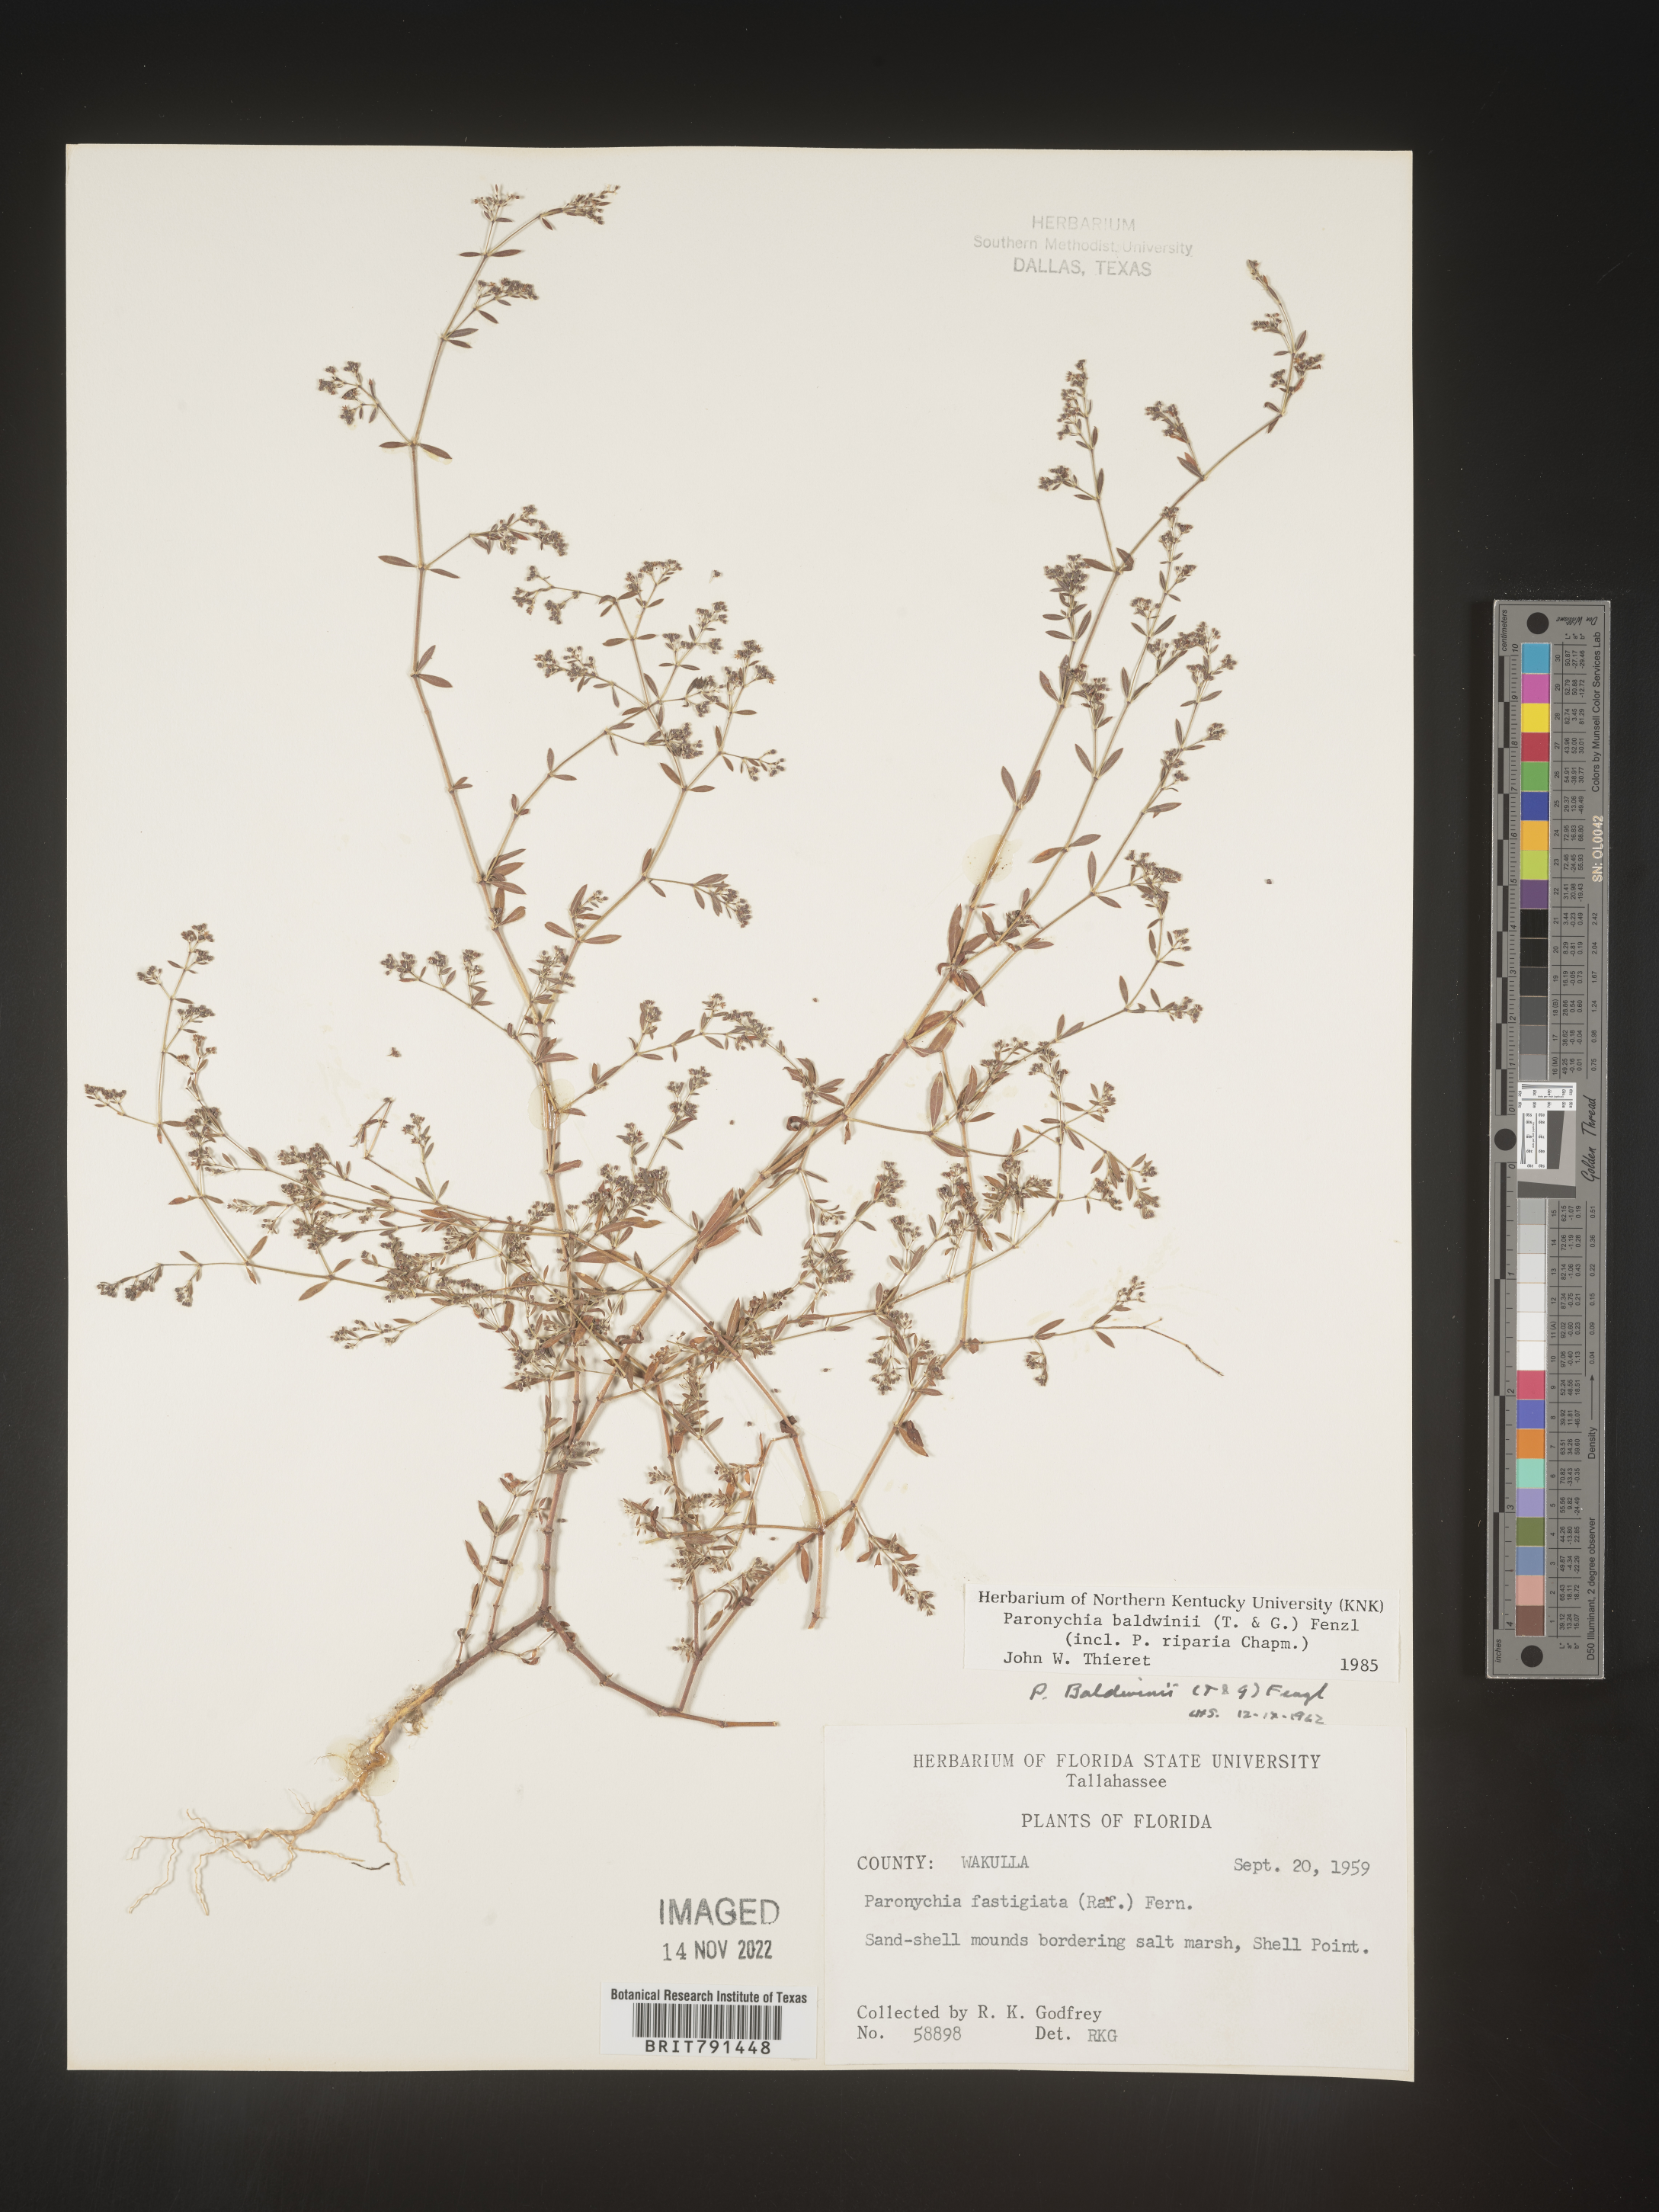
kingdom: Plantae
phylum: Tracheophyta
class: Magnoliopsida
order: Caryophyllales
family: Caryophyllaceae
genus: Paronychia
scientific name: Paronychia baldwinii
